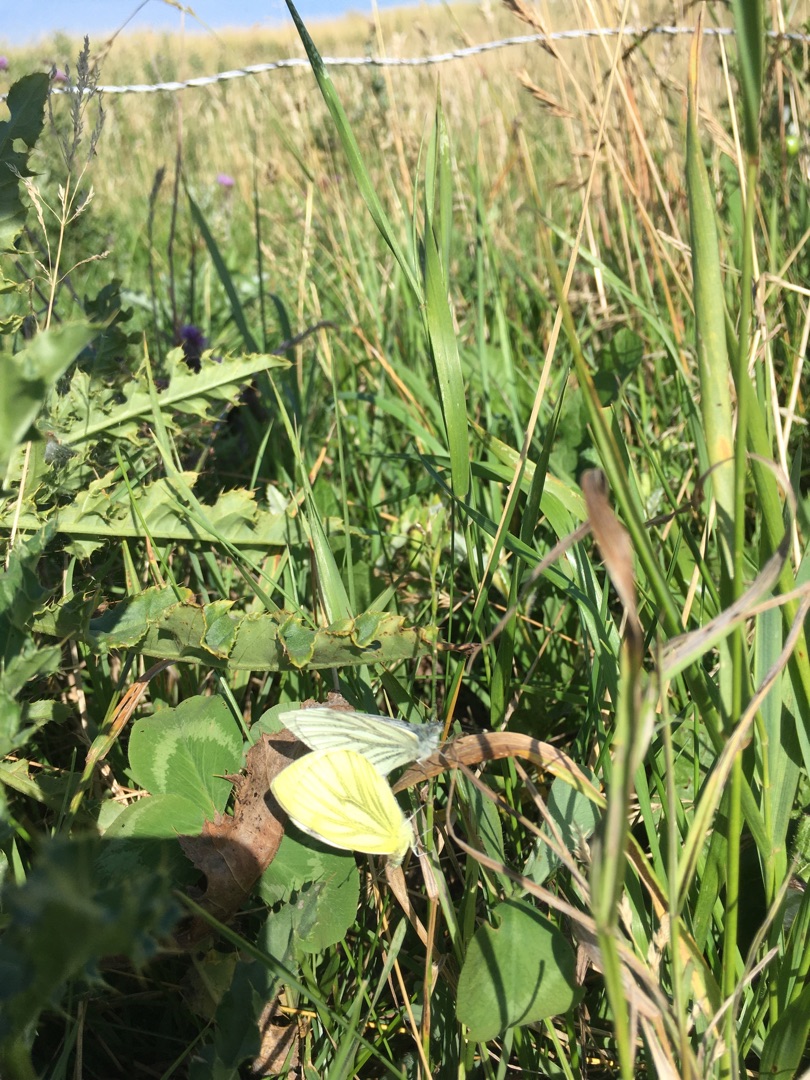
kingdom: Animalia
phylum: Arthropoda
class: Insecta
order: Lepidoptera
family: Pieridae
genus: Pieris
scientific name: Pieris napi
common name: Grønåret kålsommerfugl
